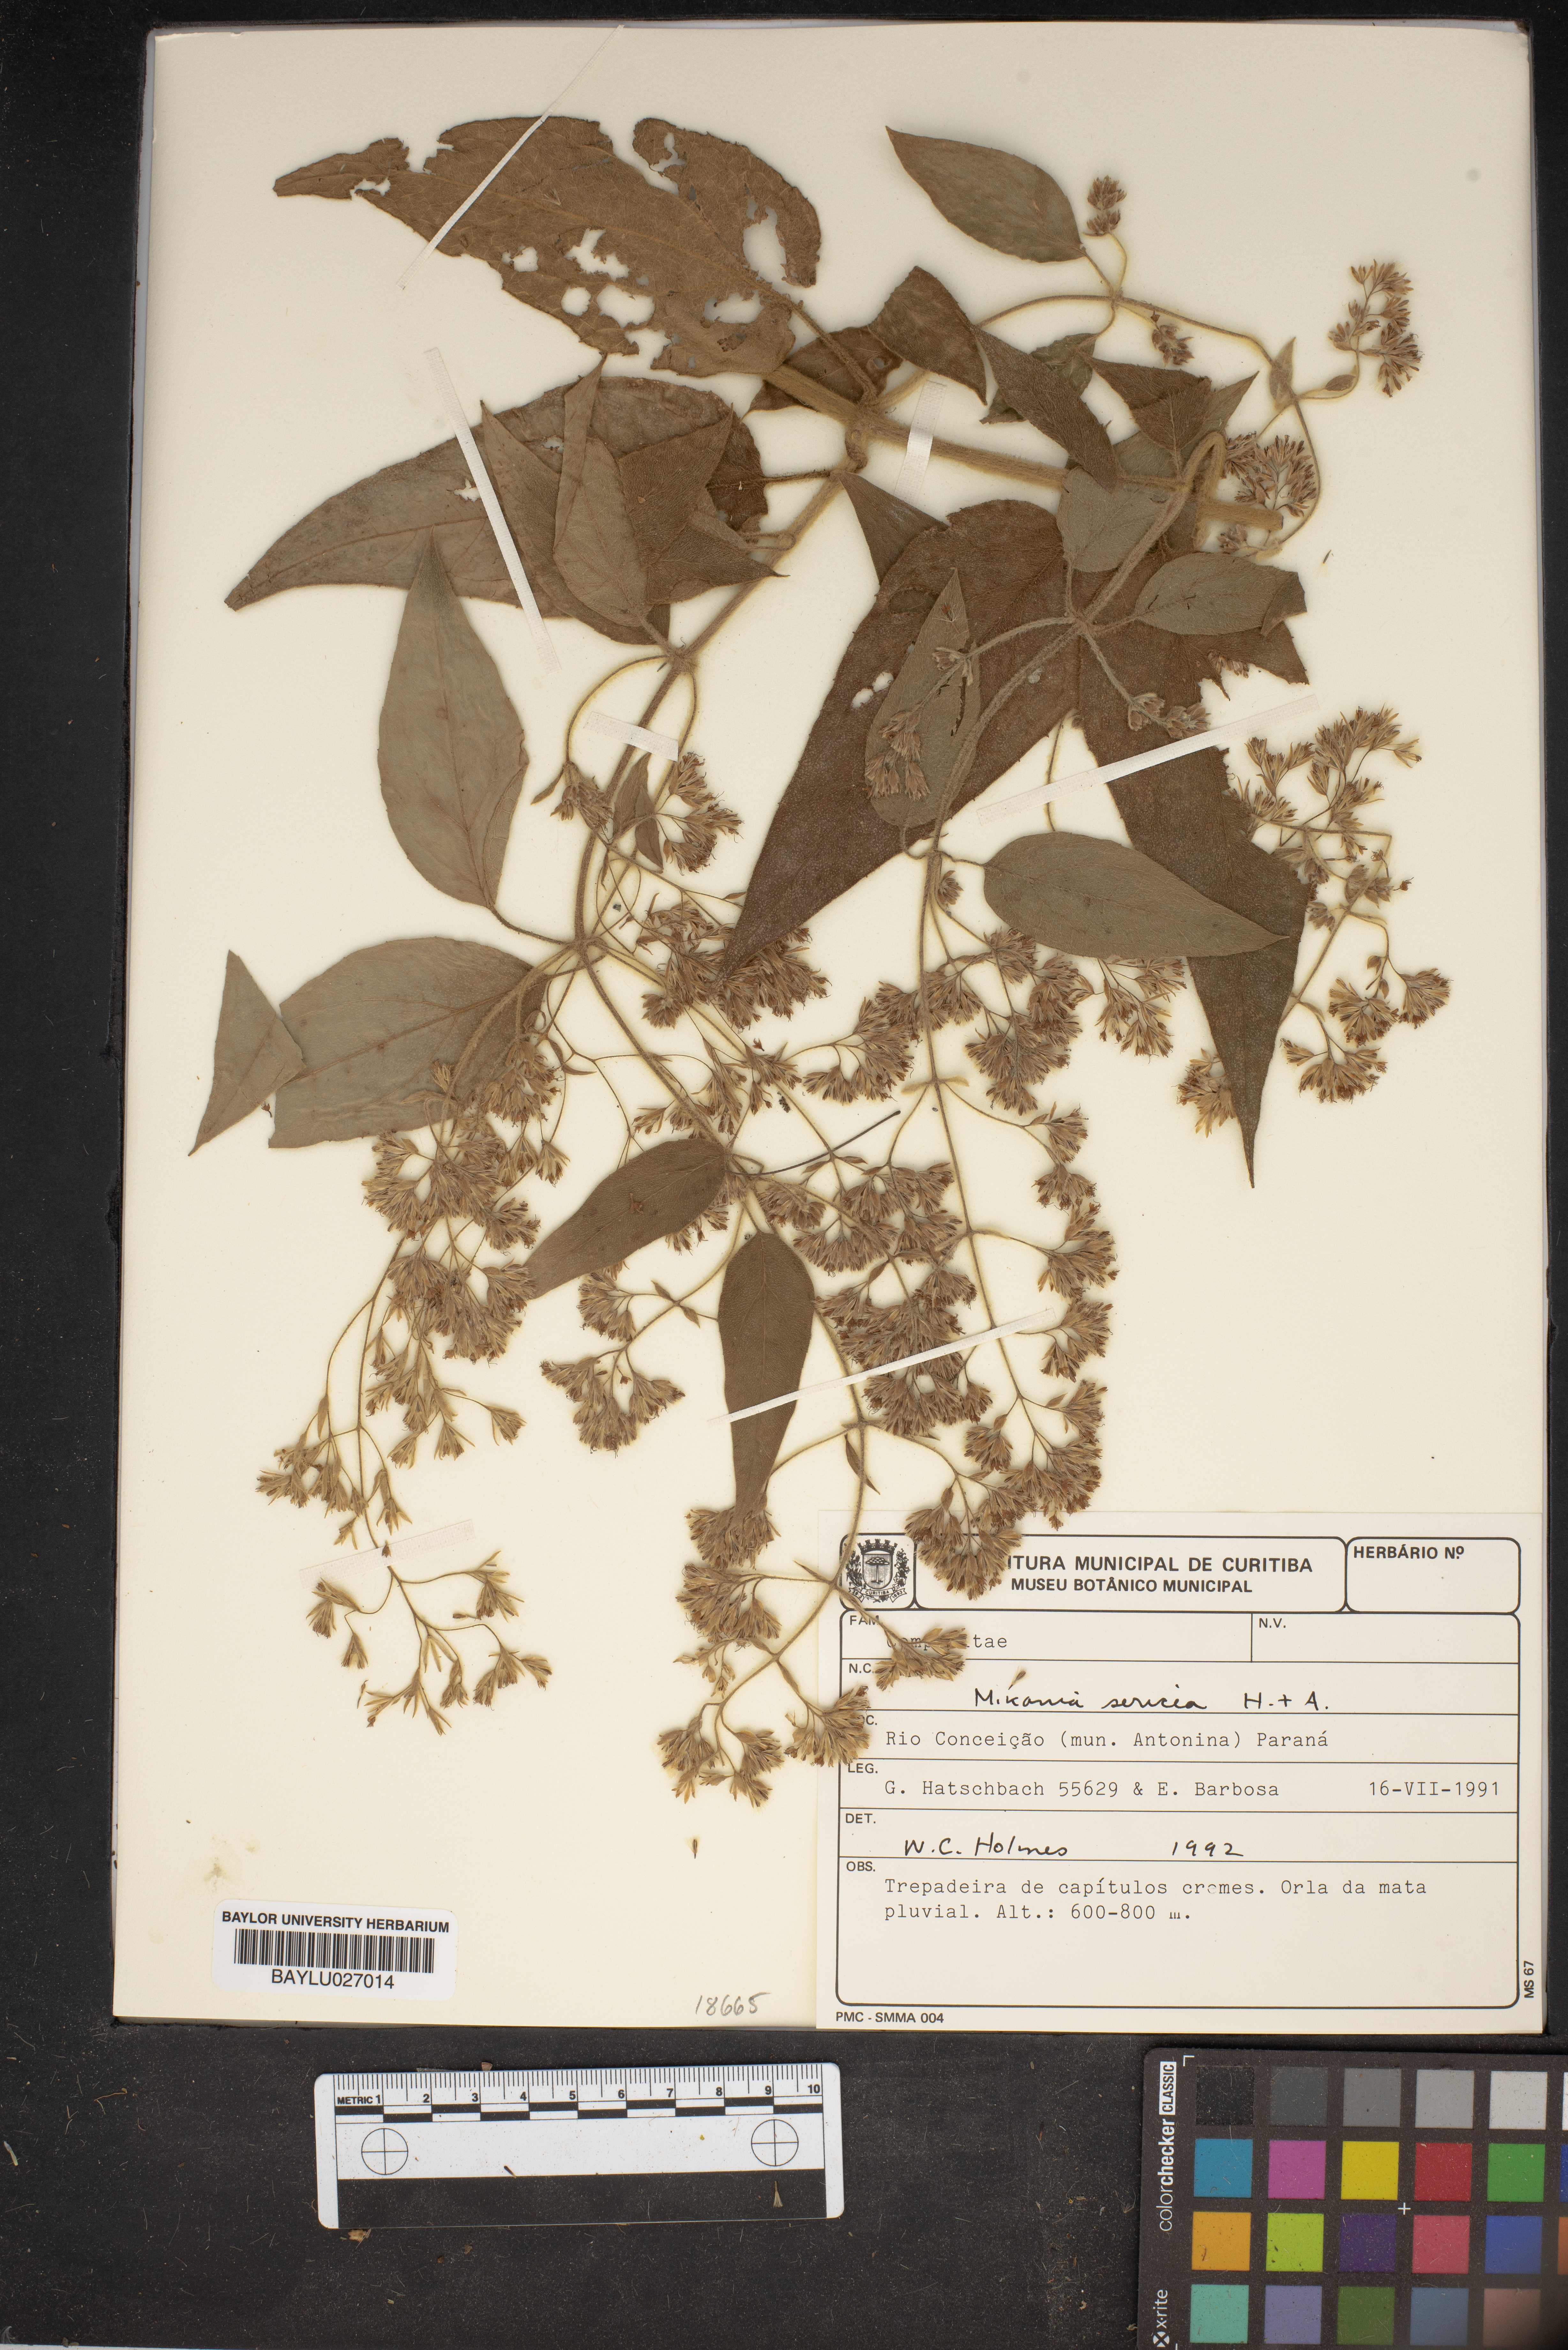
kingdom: Plantae
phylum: Tracheophyta
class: Magnoliopsida
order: Asterales
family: Asteraceae
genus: Mikania
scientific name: Mikania sericea
